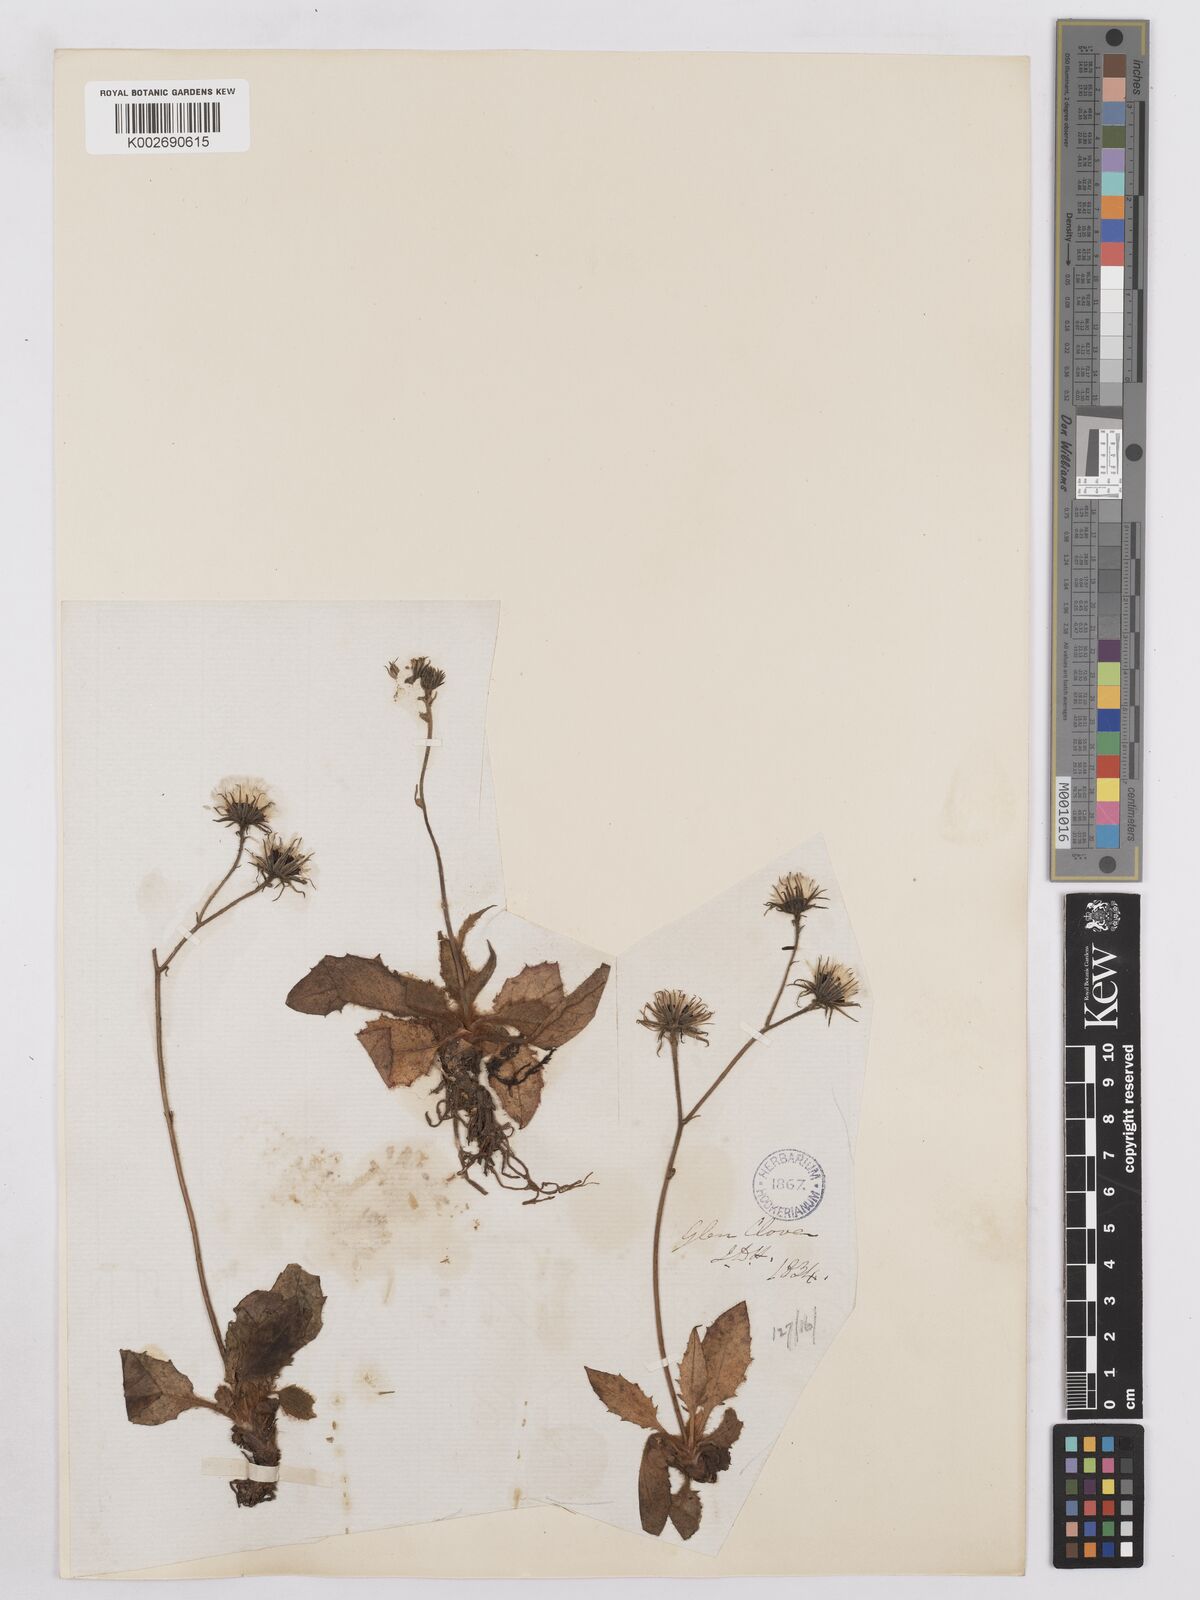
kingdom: Plantae
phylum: Tracheophyta
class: Magnoliopsida
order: Asterales
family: Asteraceae
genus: Hieracium
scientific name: Hieracium clovense
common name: Clova hawkweed
